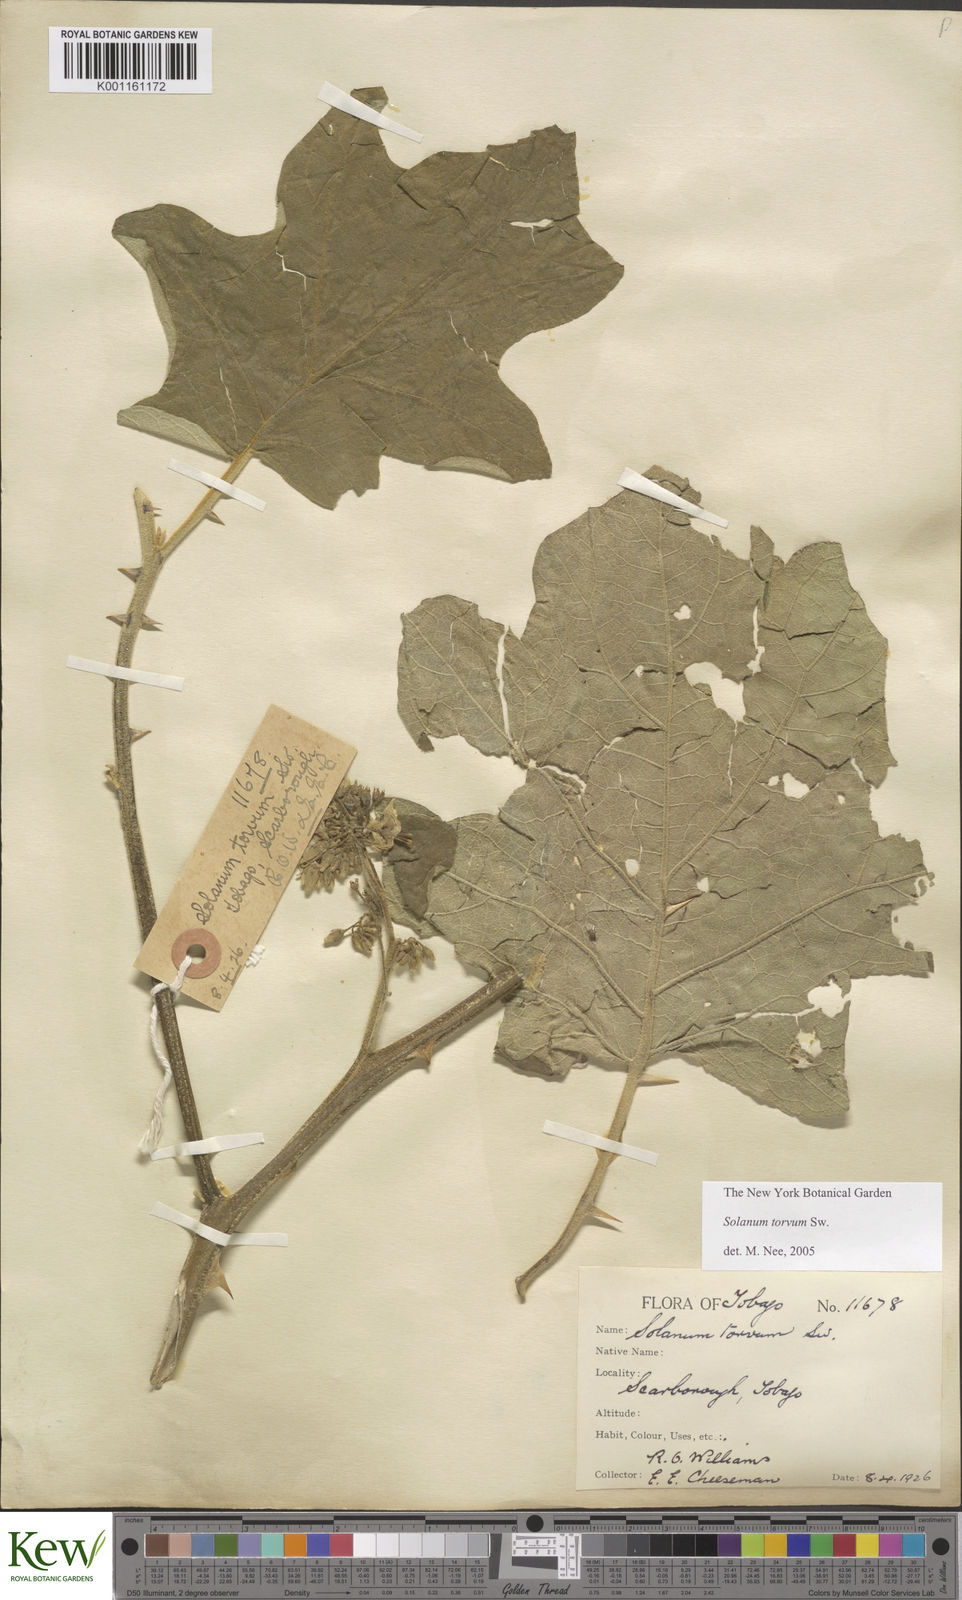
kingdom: Plantae
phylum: Tracheophyta
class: Magnoliopsida
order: Solanales
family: Solanaceae
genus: Solanum
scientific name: Solanum torvum
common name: Turkey berry
